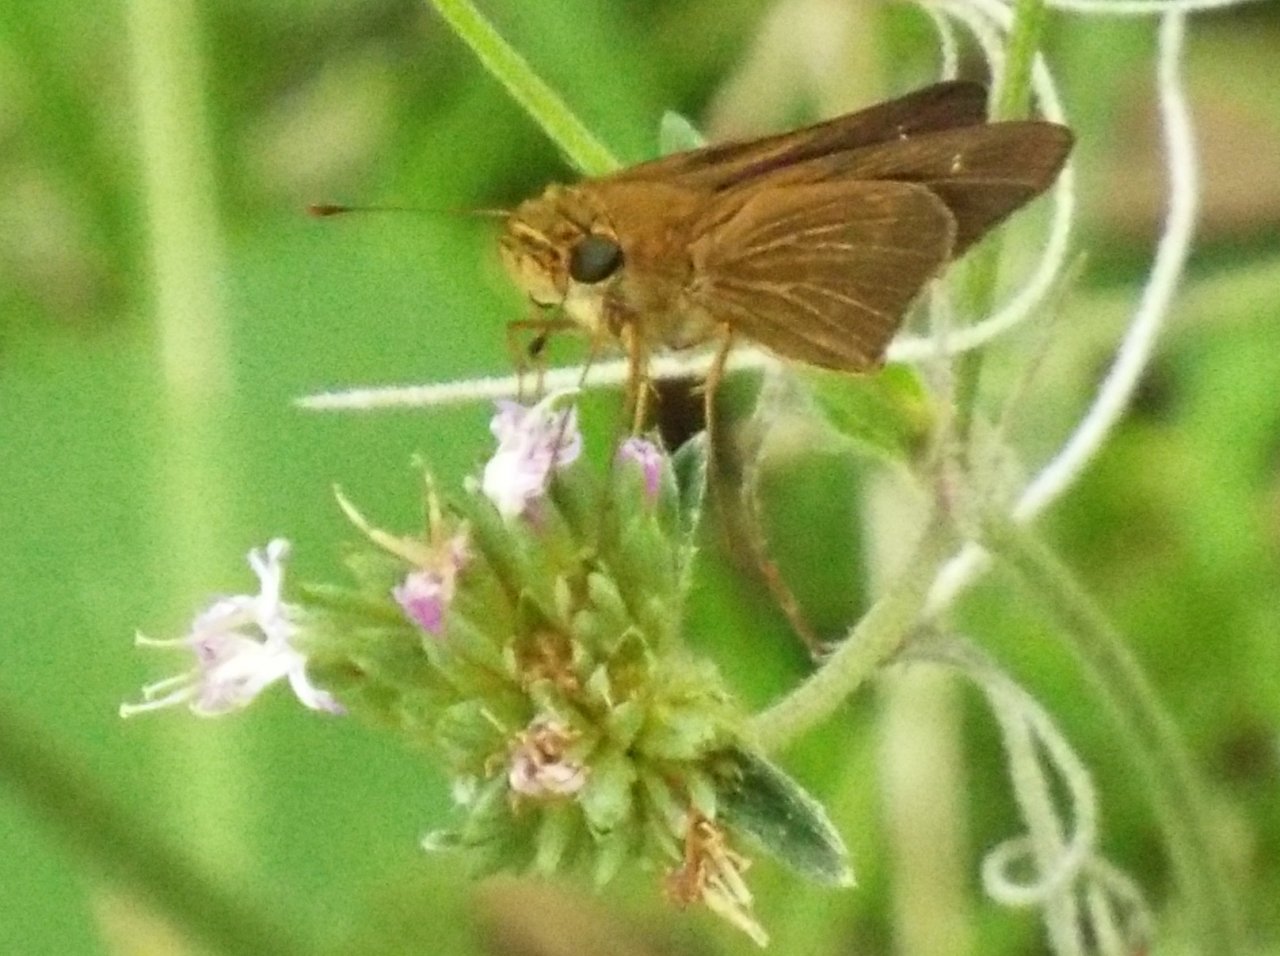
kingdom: Animalia
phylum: Arthropoda
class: Insecta
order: Lepidoptera
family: Hesperiidae
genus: Panoquina
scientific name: Panoquina ocola
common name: Ocola Skipper
